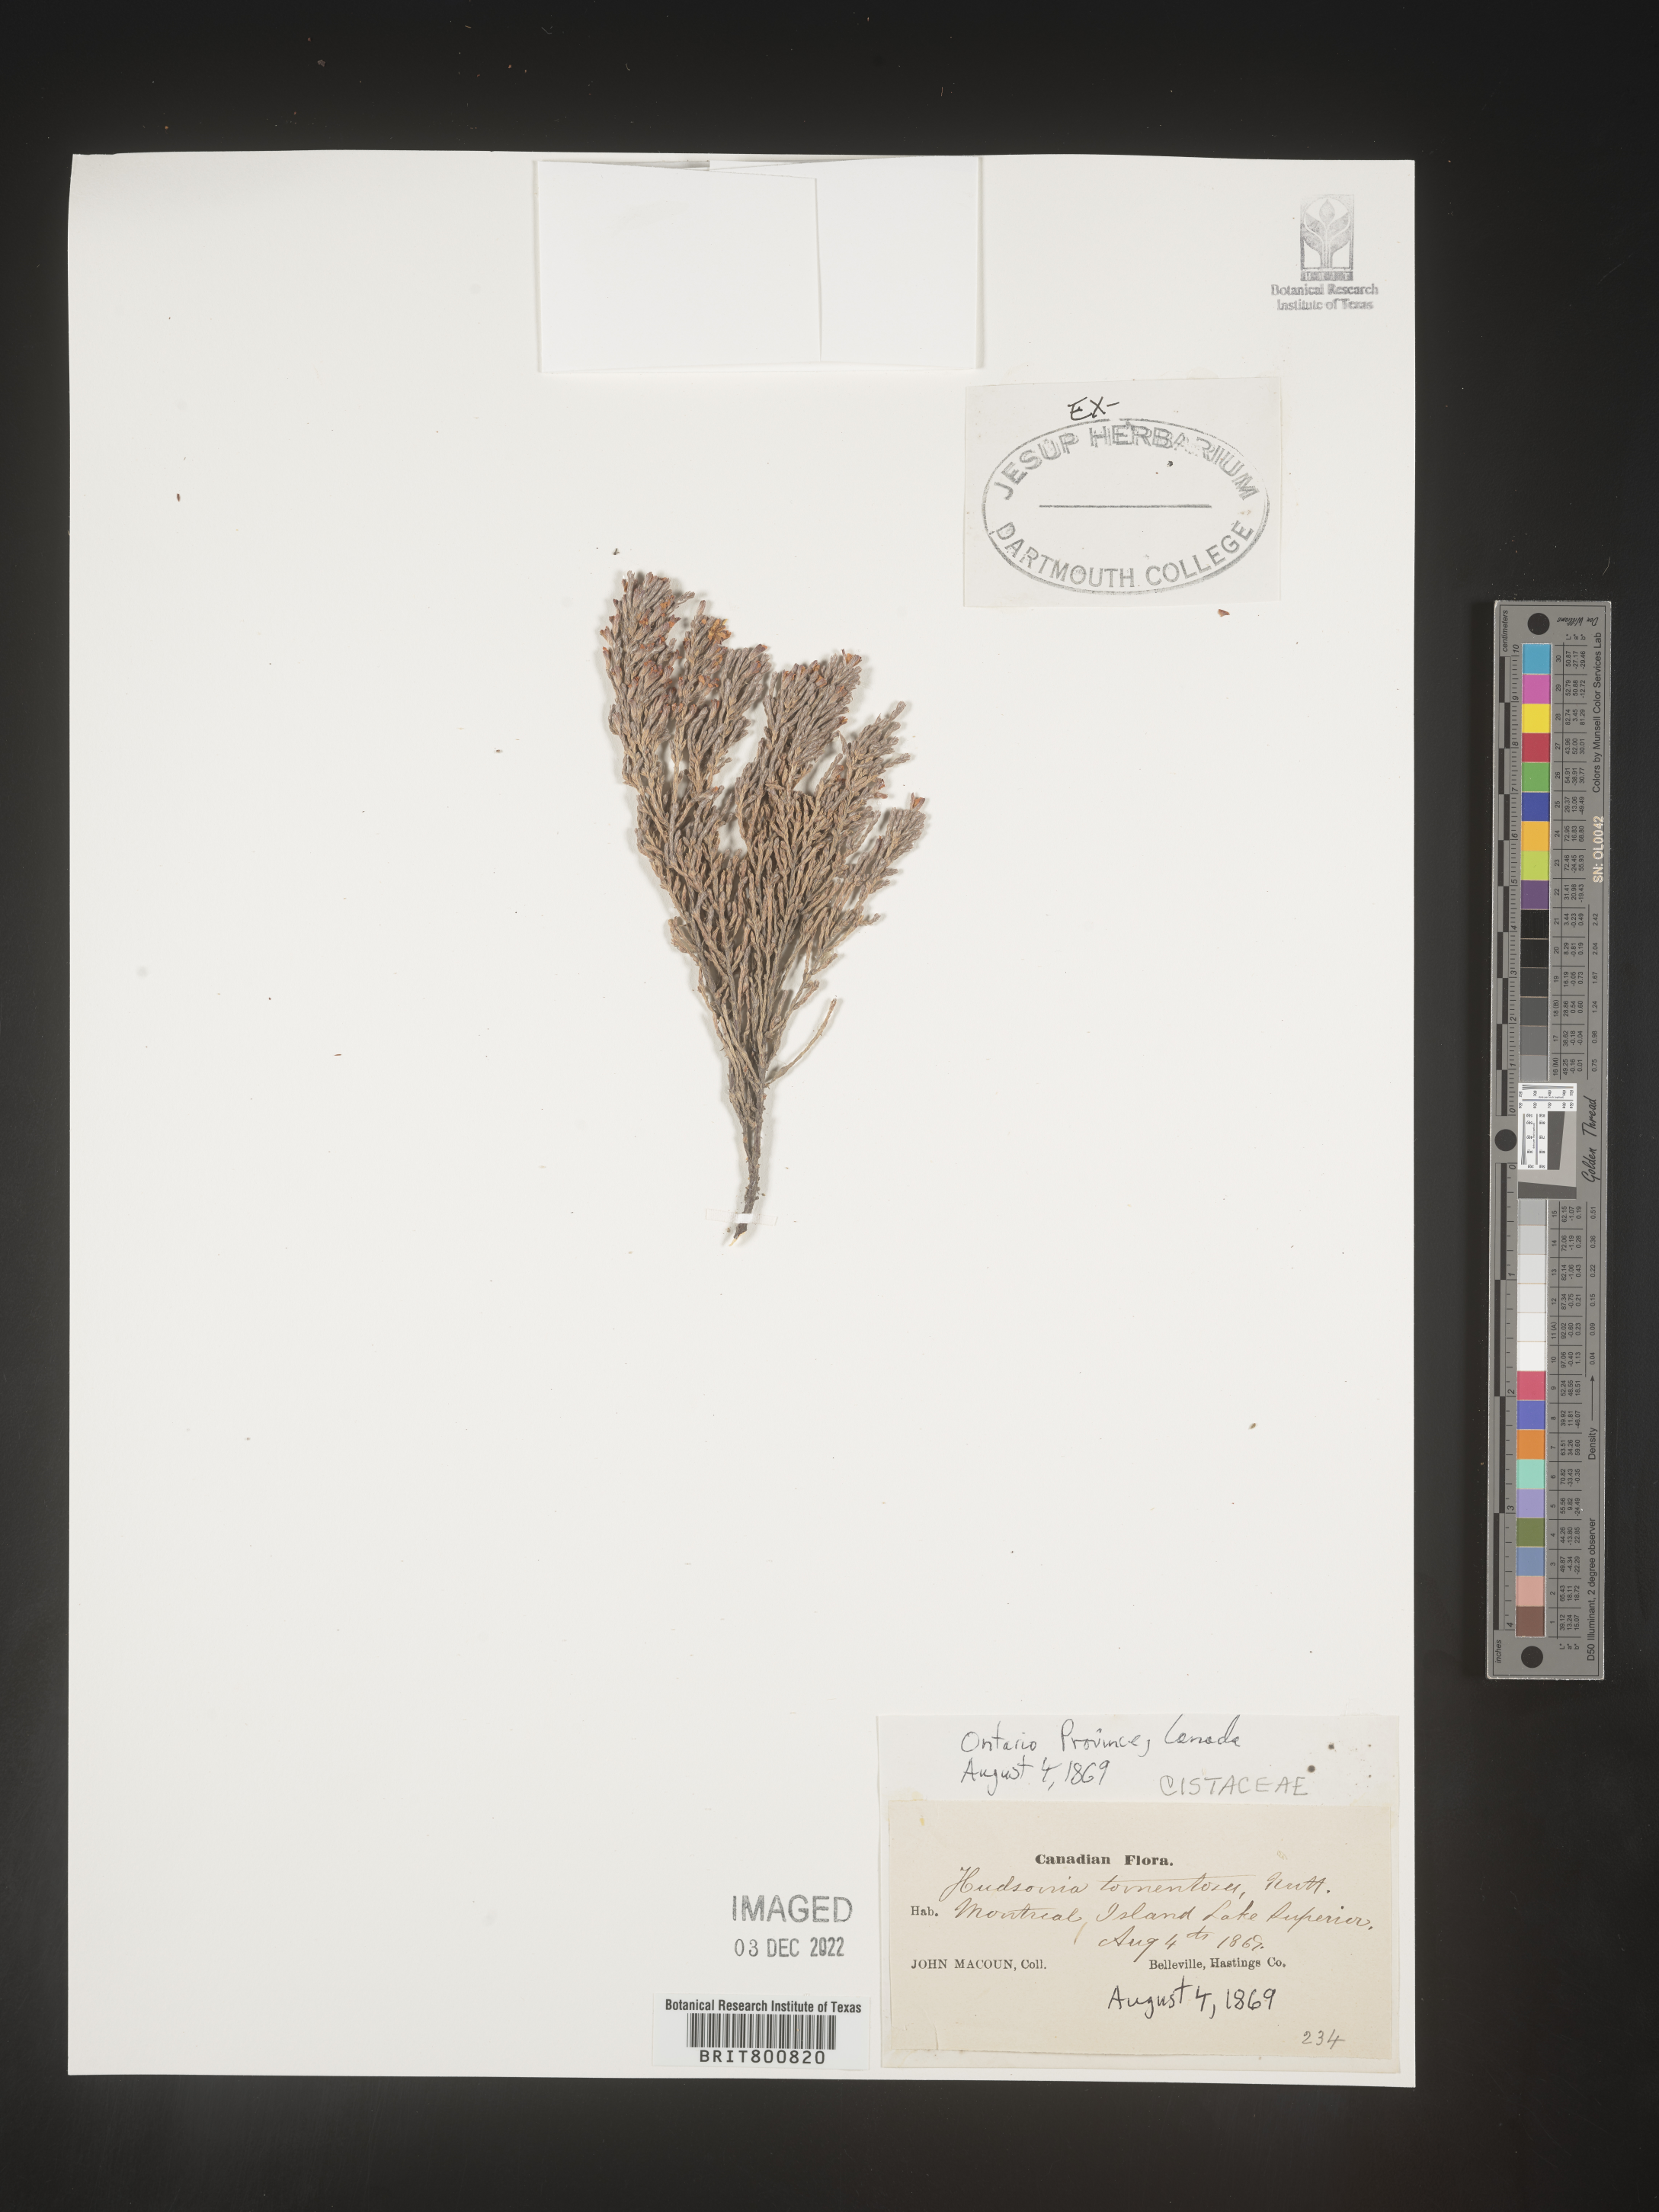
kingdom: Plantae
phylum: Tracheophyta
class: Magnoliopsida
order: Malvales
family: Cistaceae
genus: Hudsonia
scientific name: Hudsonia tomentosa
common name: Beach-heath
